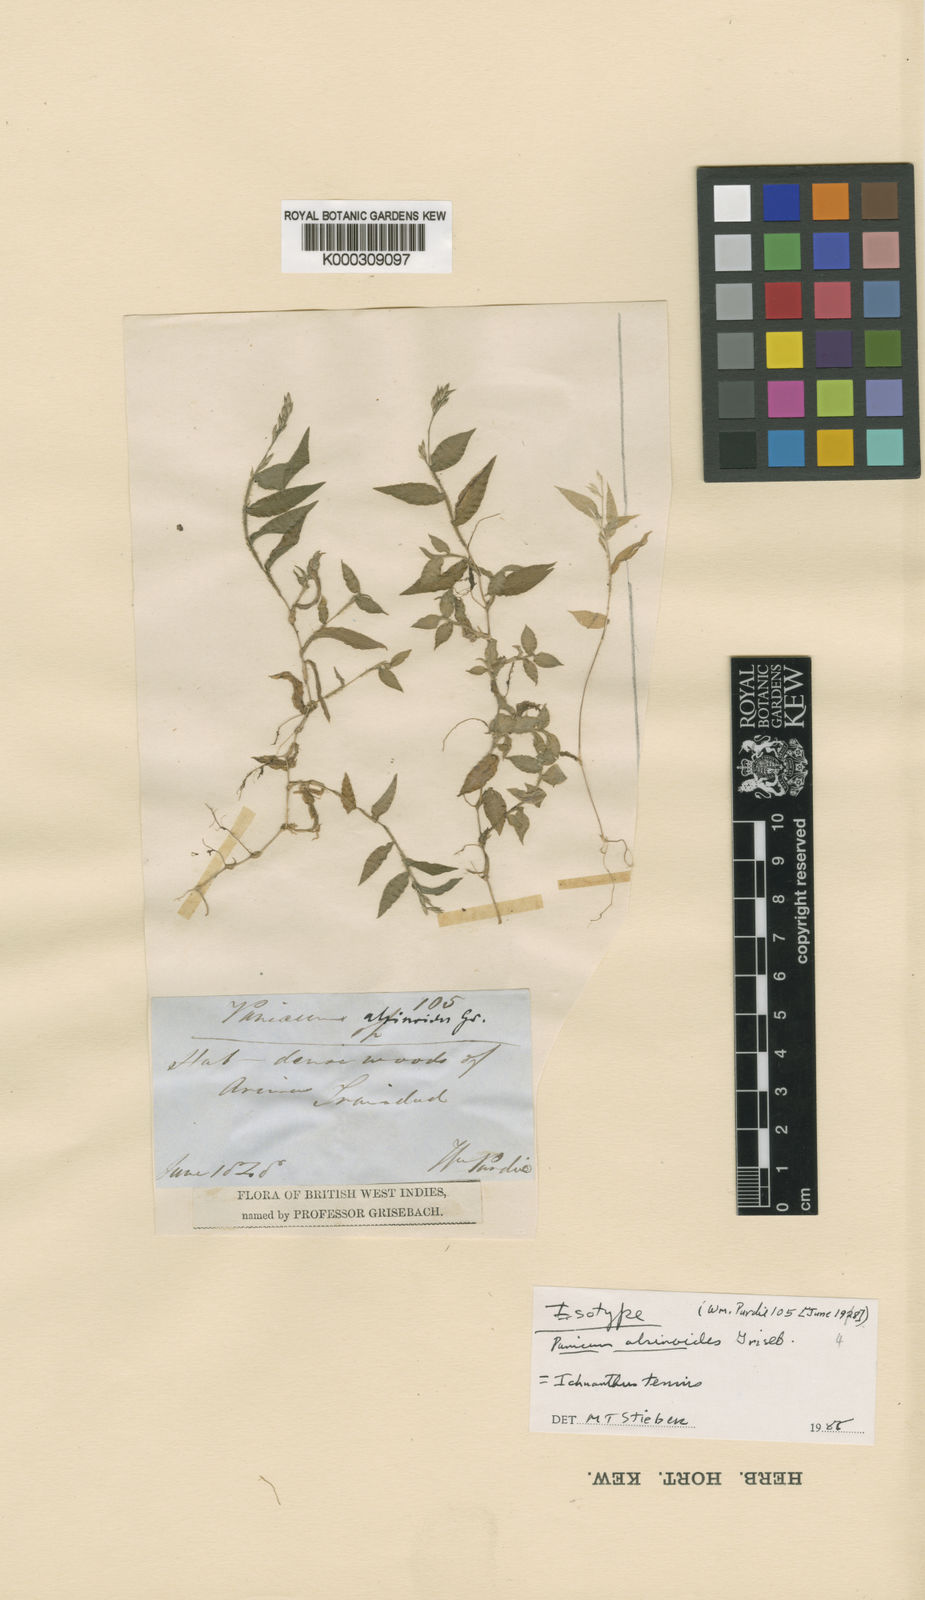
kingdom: Plantae
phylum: Tracheophyta
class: Liliopsida
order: Poales
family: Poaceae
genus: Ichnanthus
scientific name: Ichnanthus tenuis
